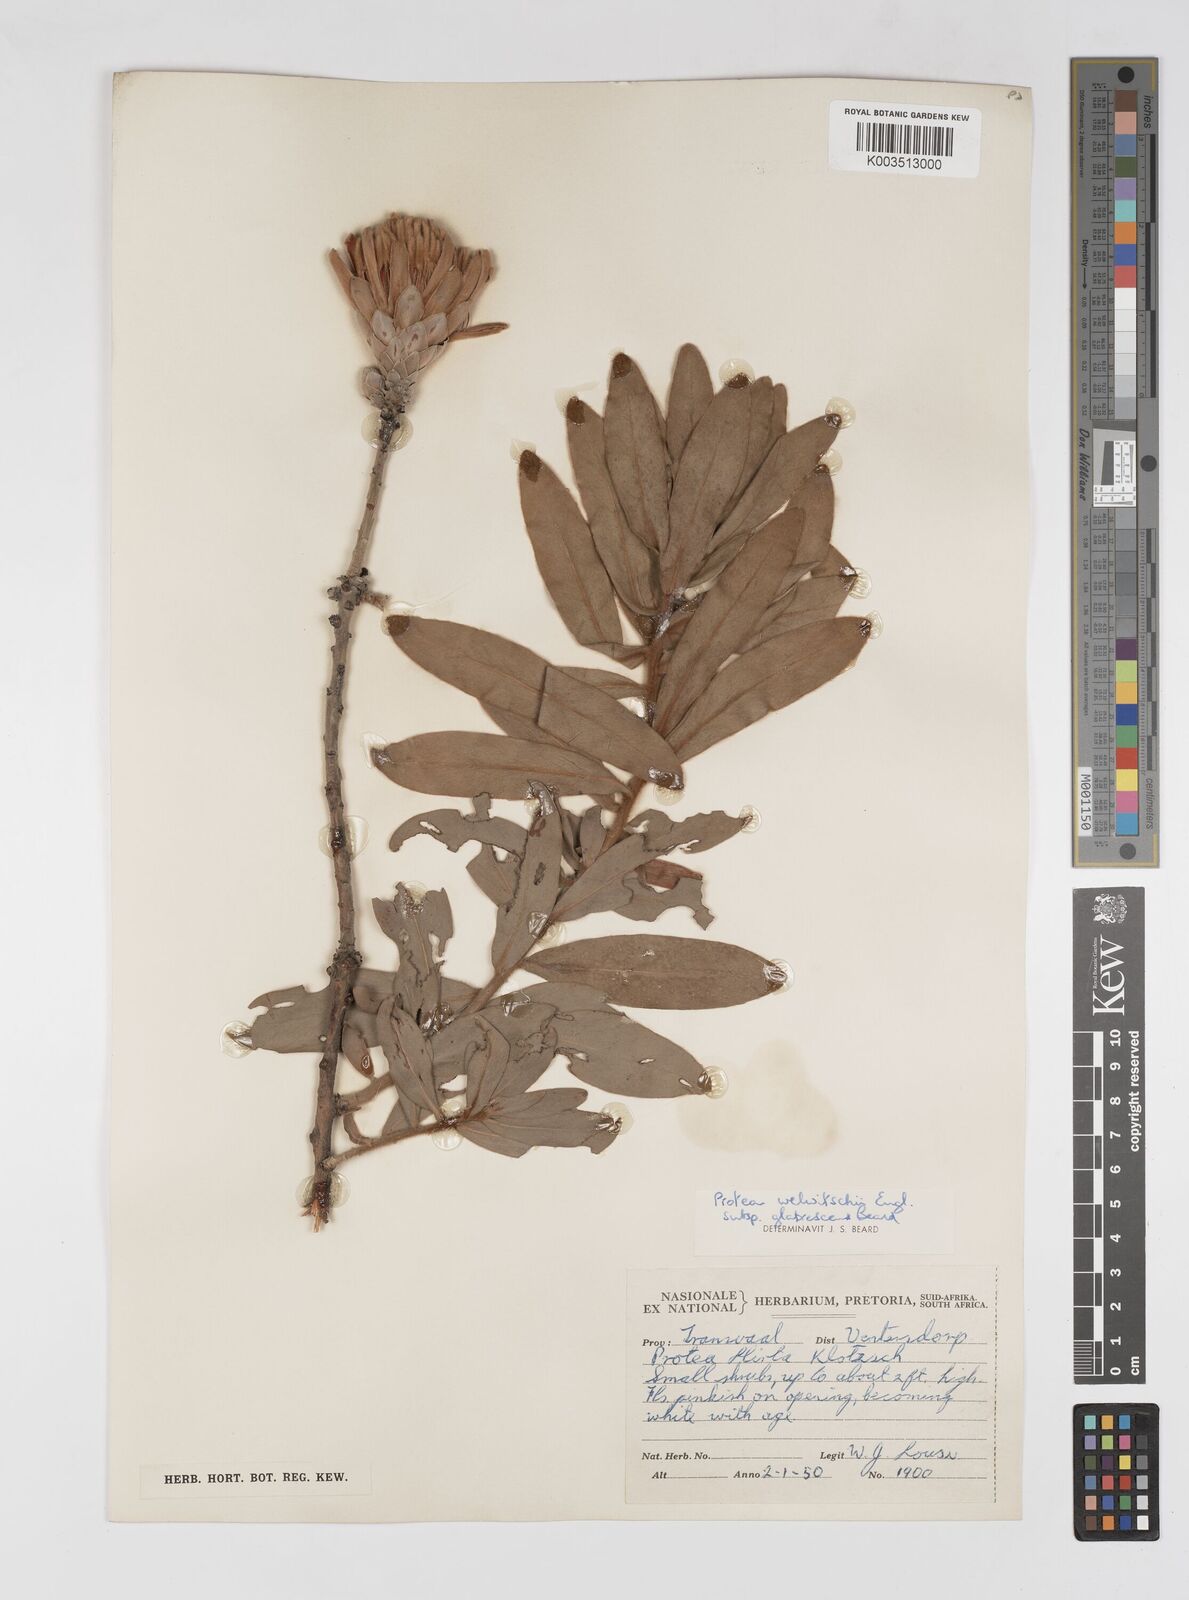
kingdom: Plantae
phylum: Tracheophyta
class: Magnoliopsida
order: Proteales
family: Proteaceae
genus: Protea
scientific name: Protea welwitschii
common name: Cluster-head protea
